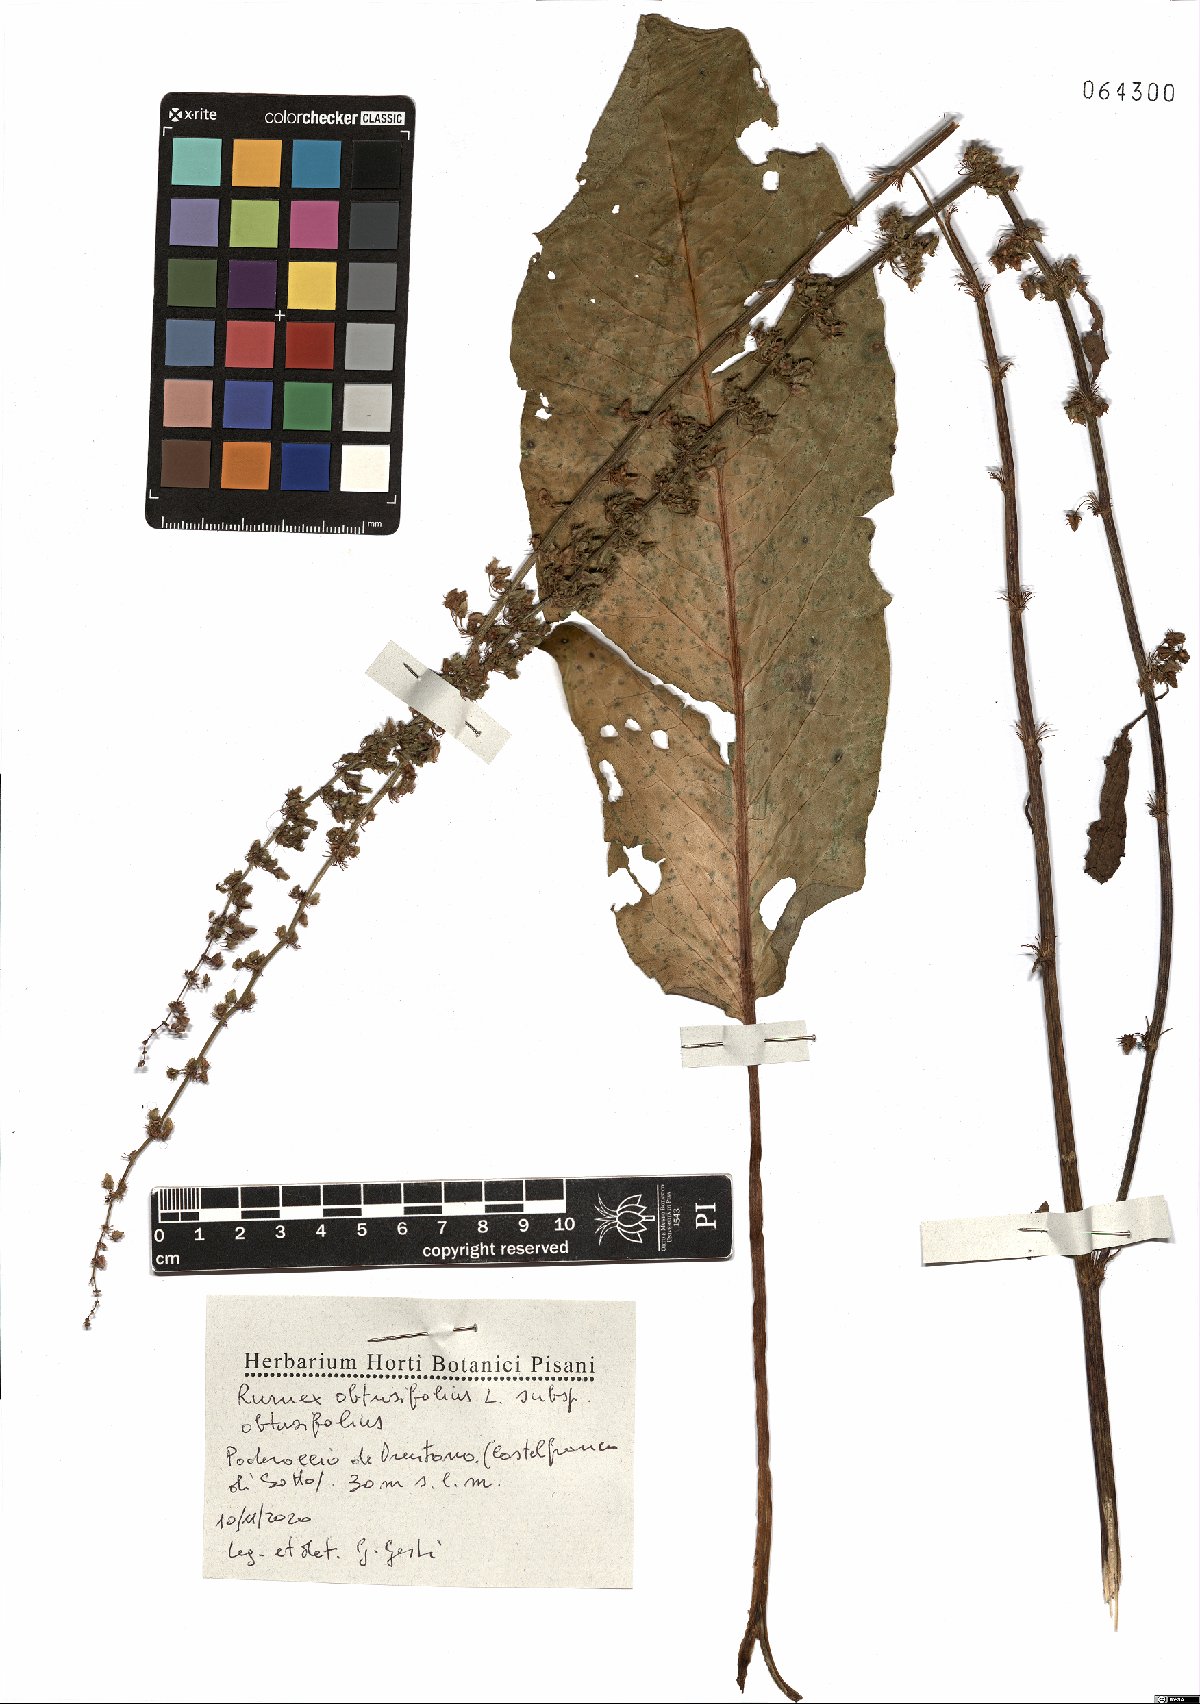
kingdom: Plantae
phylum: Tracheophyta
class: Magnoliopsida
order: Caryophyllales
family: Polygonaceae
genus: Rumex
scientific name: Rumex obtusifolius
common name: Bitter dock
